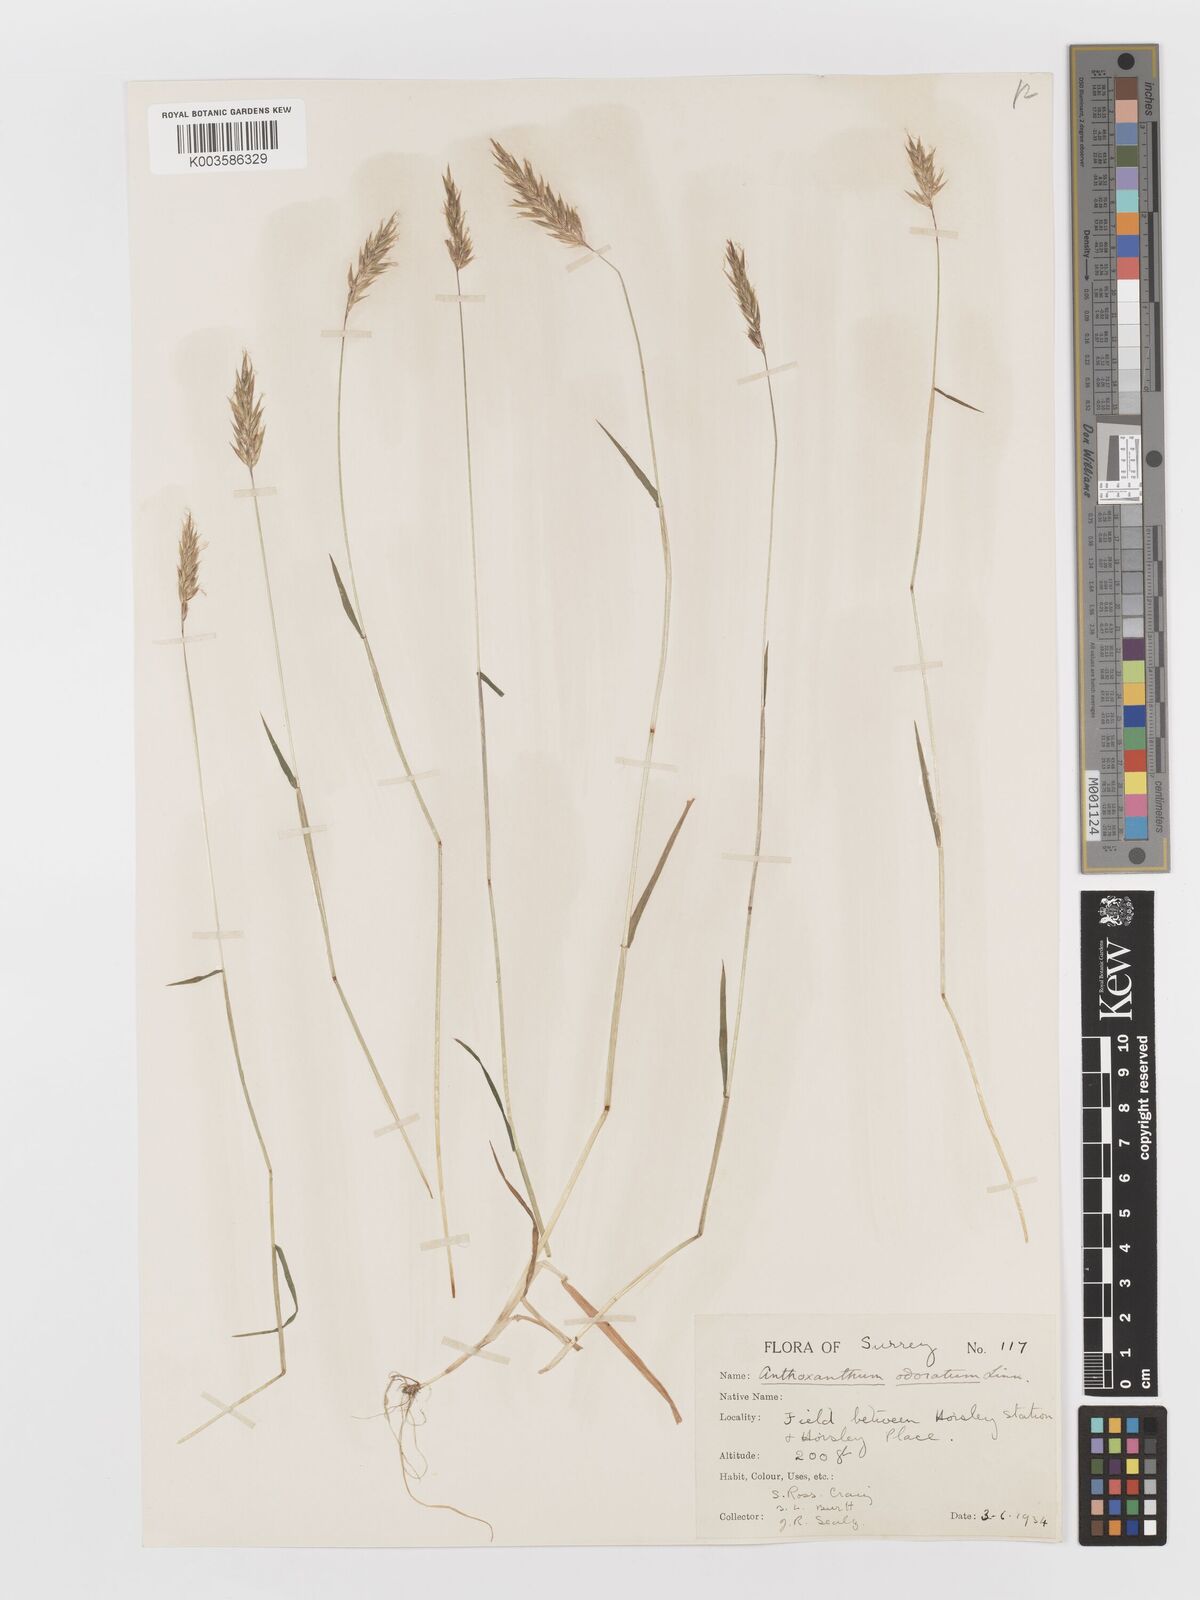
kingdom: Plantae
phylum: Tracheophyta
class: Liliopsida
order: Poales
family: Poaceae
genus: Anthoxanthum
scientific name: Anthoxanthum odoratum
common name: Sweet vernalgrass
